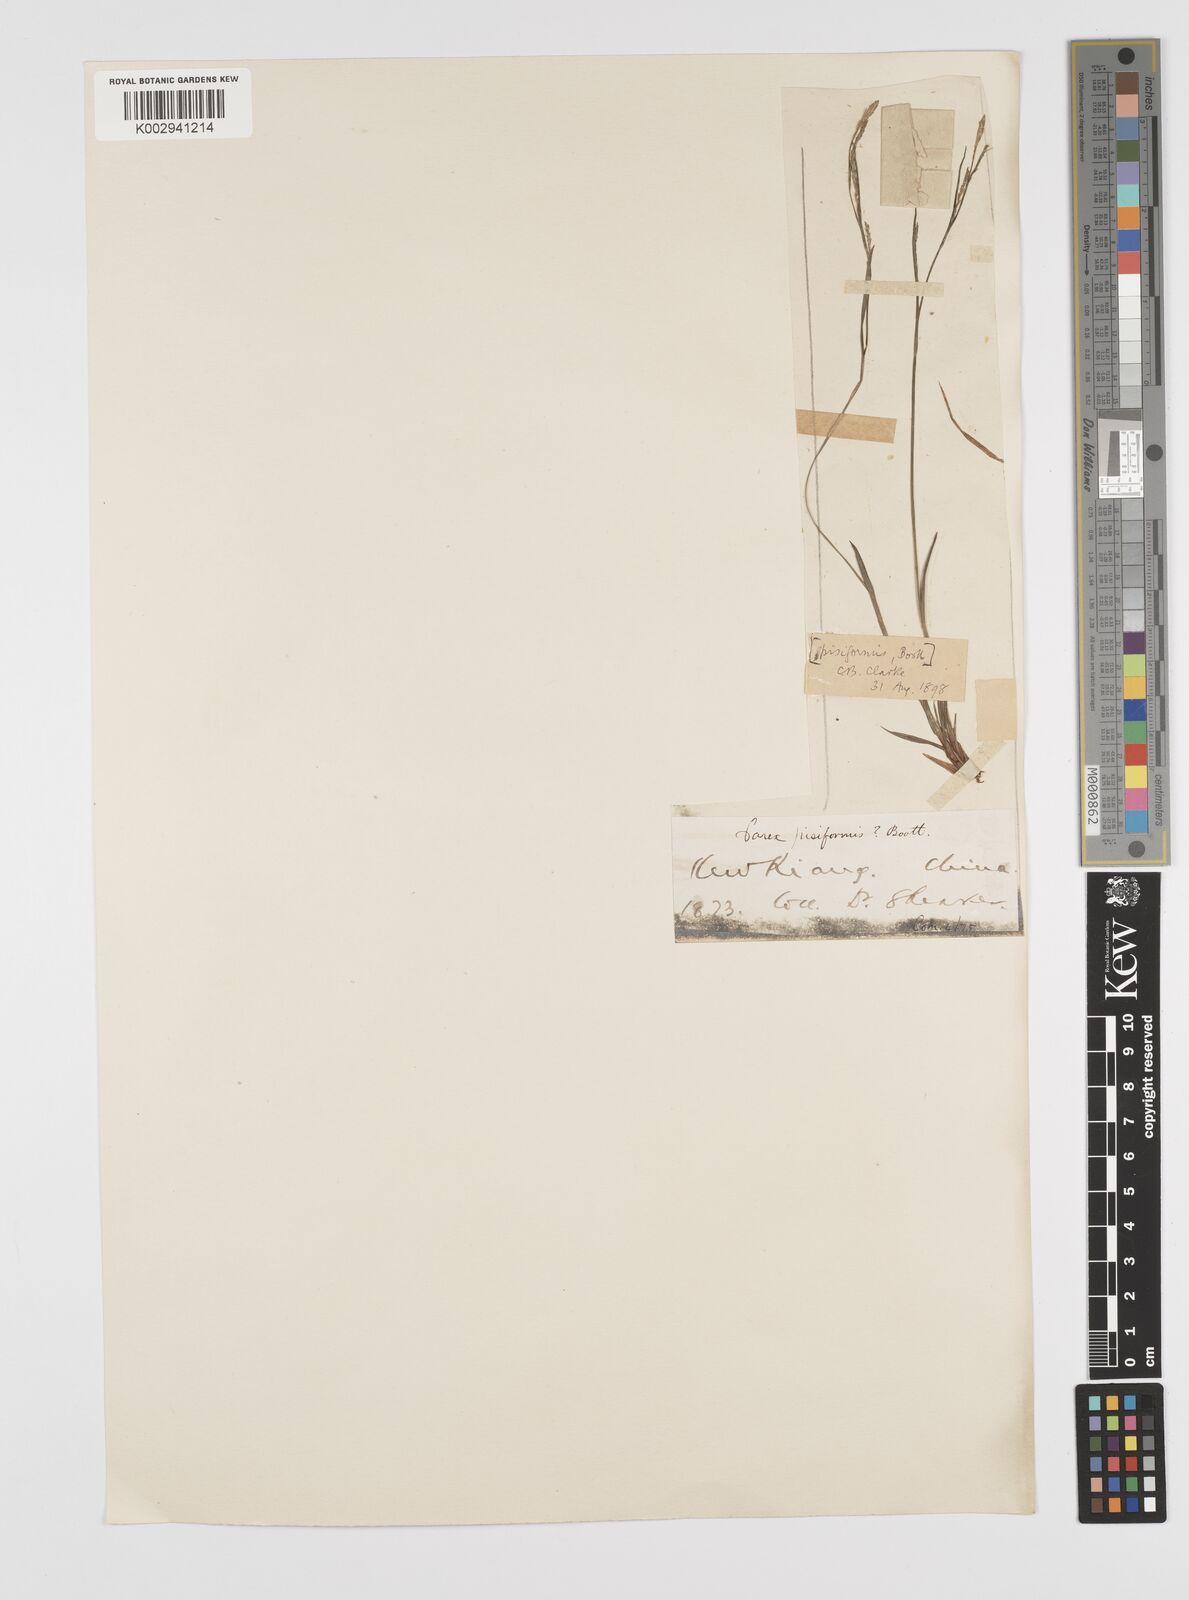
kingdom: Plantae
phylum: Tracheophyta
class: Liliopsida
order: Poales
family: Cyperaceae
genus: Carex
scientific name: Carex pisiformis
